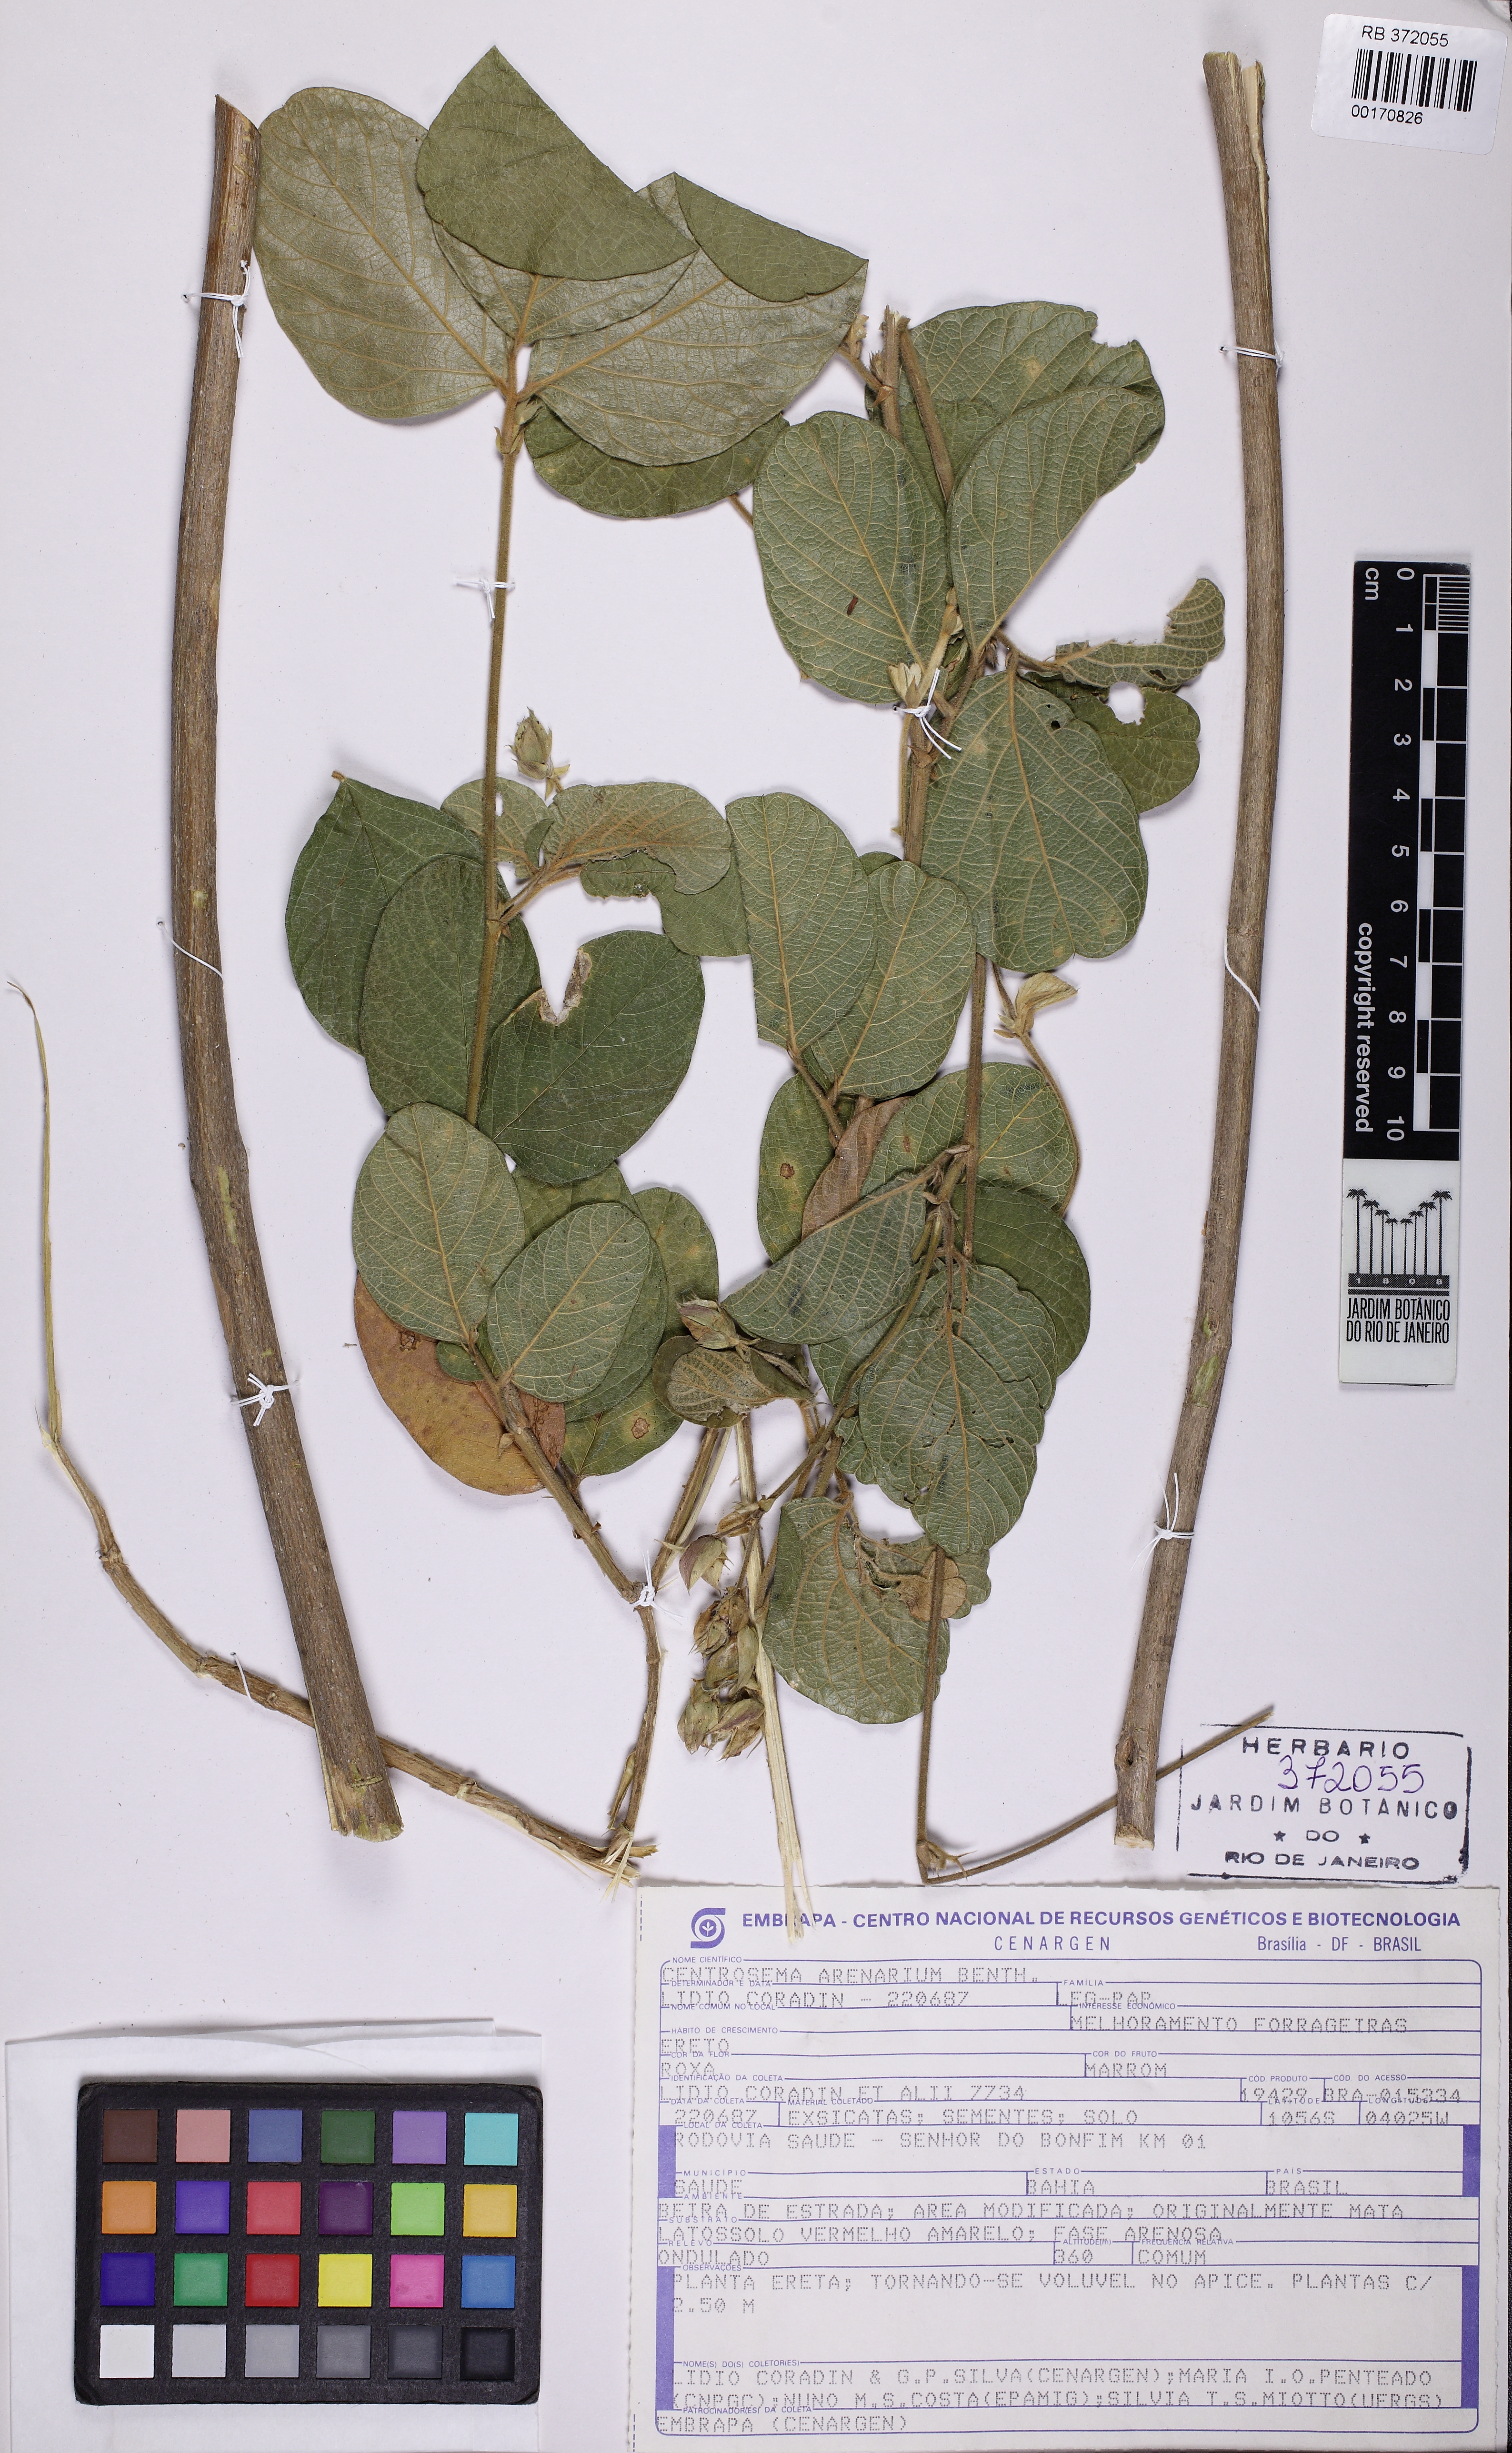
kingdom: Plantae
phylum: Tracheophyta
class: Magnoliopsida
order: Fabales
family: Fabaceae
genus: Centrosema
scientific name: Centrosema arenarium
